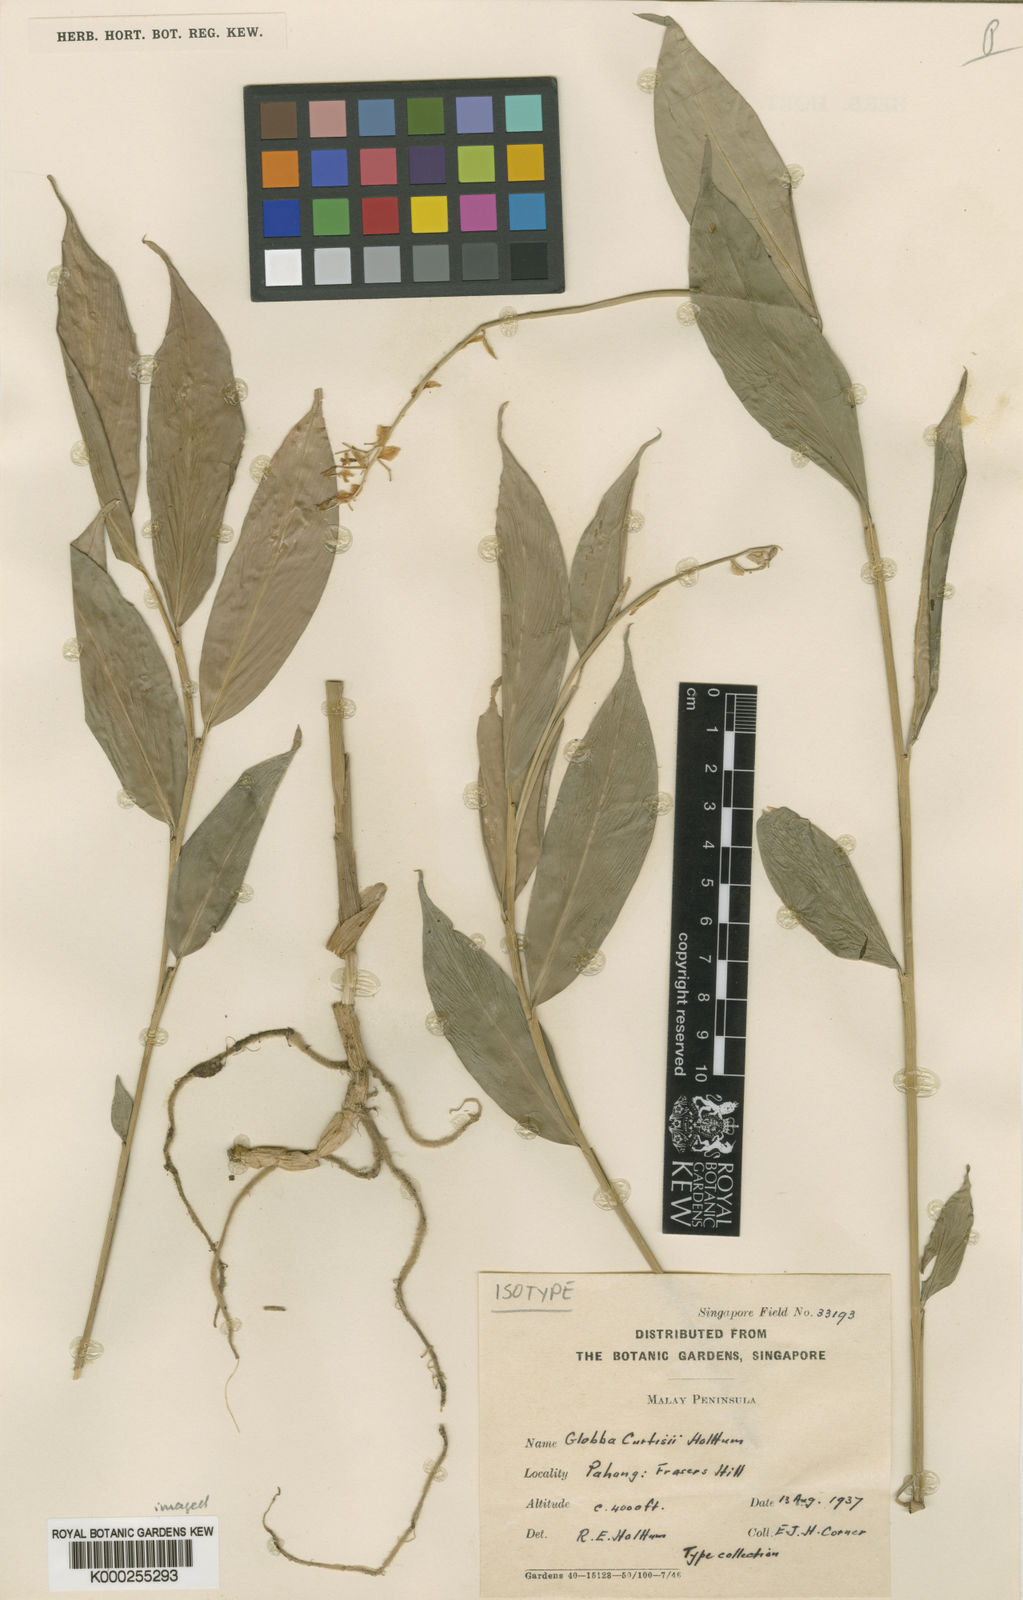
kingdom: Plantae
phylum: Tracheophyta
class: Liliopsida
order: Zingiberales
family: Zingiberaceae
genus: Globba
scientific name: Globba curtisii
